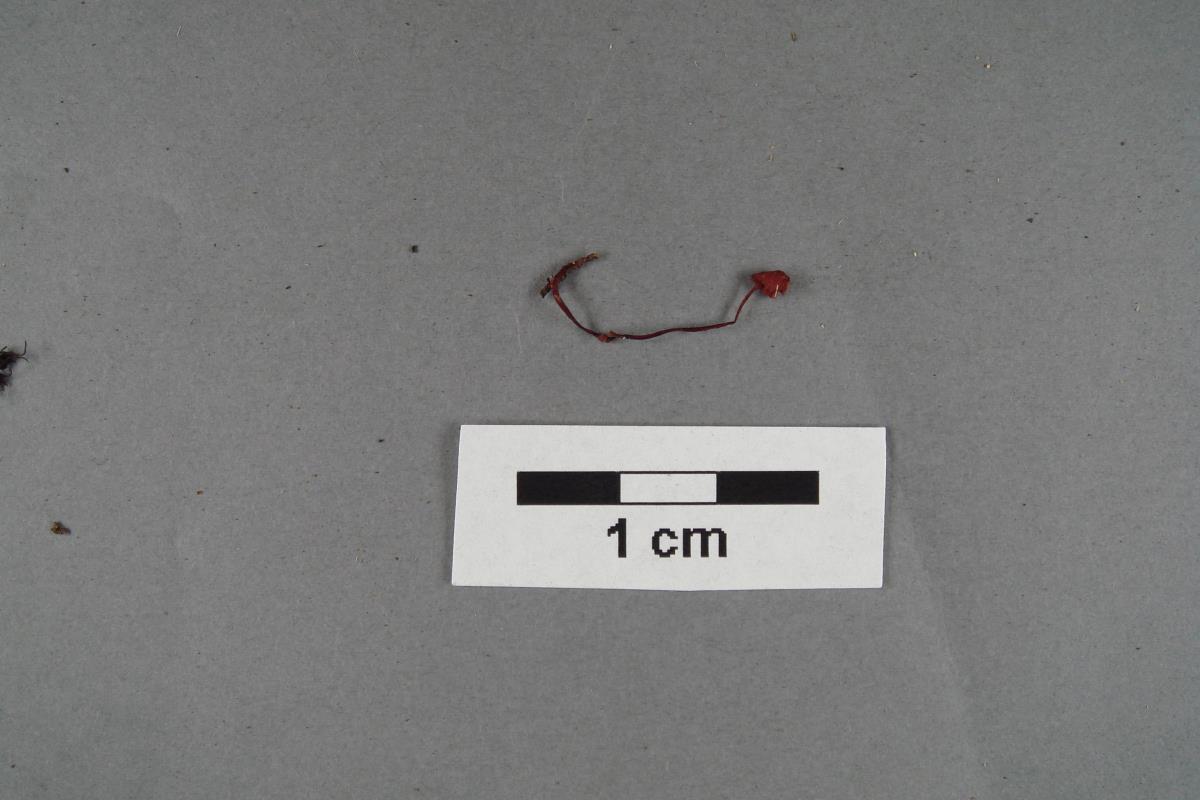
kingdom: Fungi
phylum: Basidiomycota
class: Agaricomycetes
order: Agaricales
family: Mycenaceae
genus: Mycena
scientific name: Mycena ura
